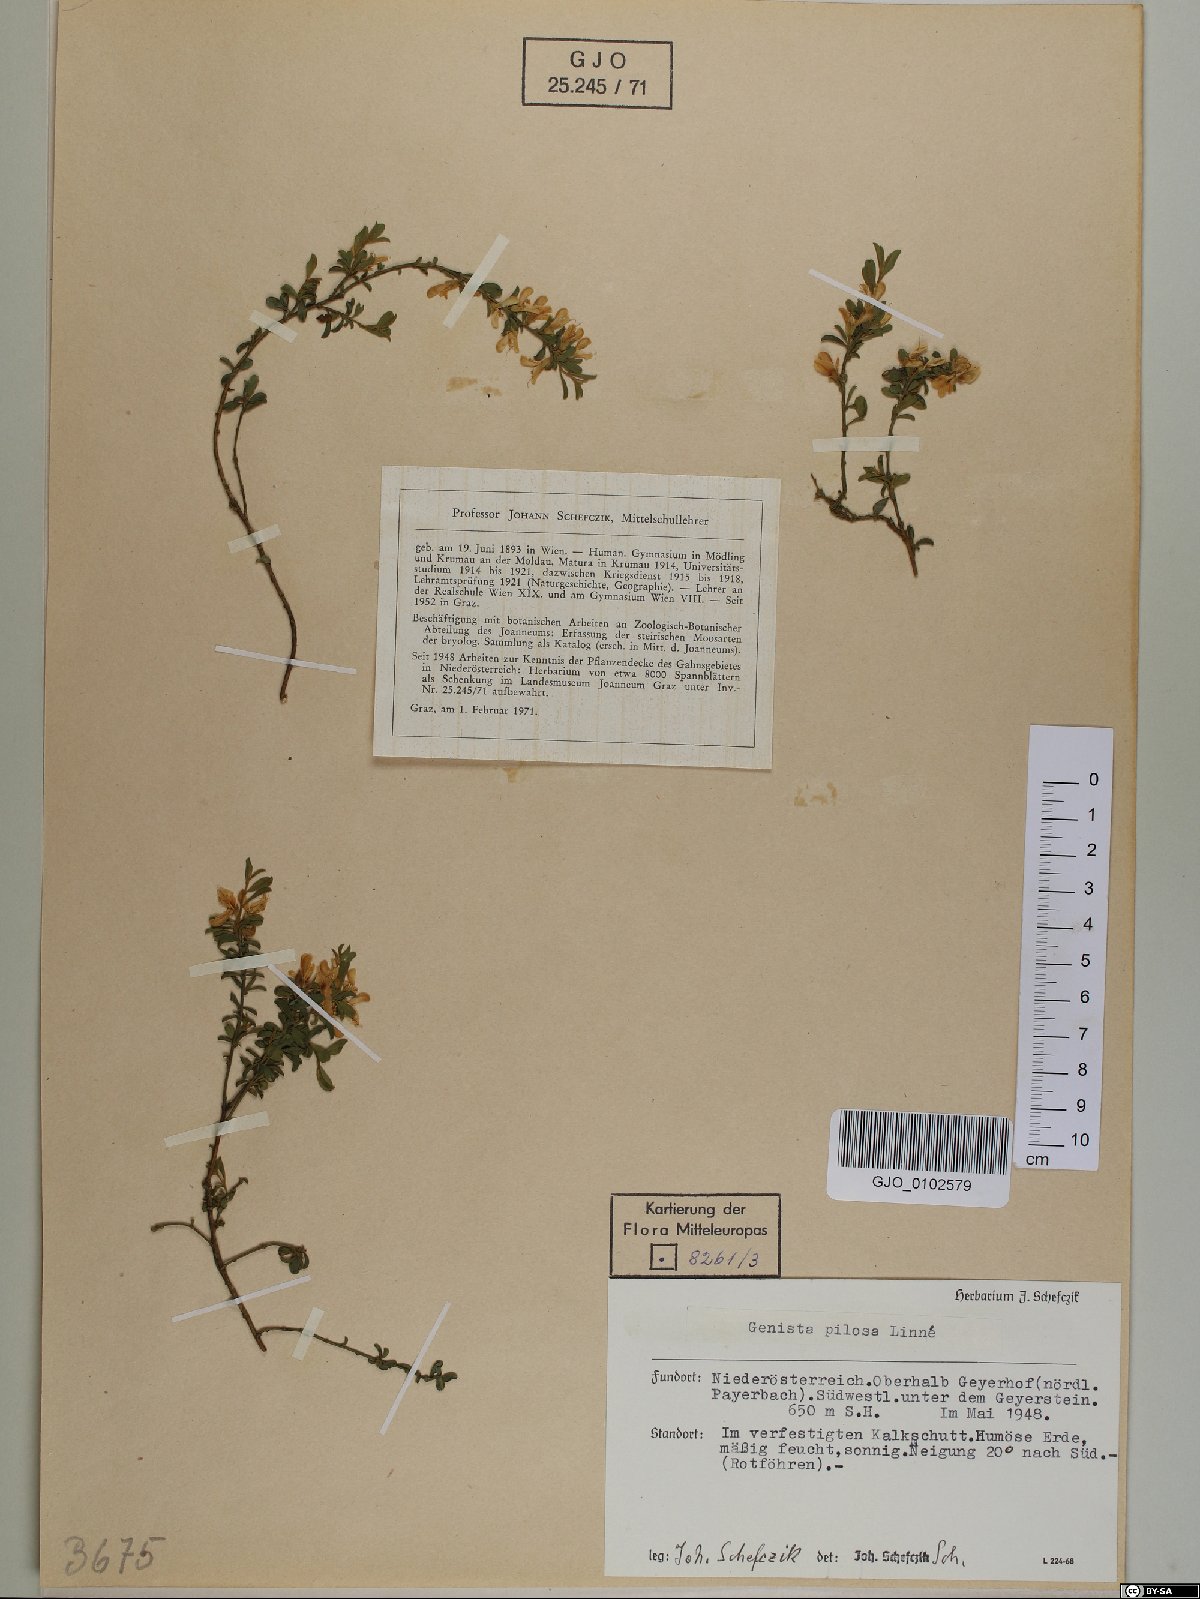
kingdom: Plantae
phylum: Tracheophyta
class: Magnoliopsida
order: Fabales
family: Fabaceae
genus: Genista
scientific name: Genista pilosa
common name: Hairy greenweed
